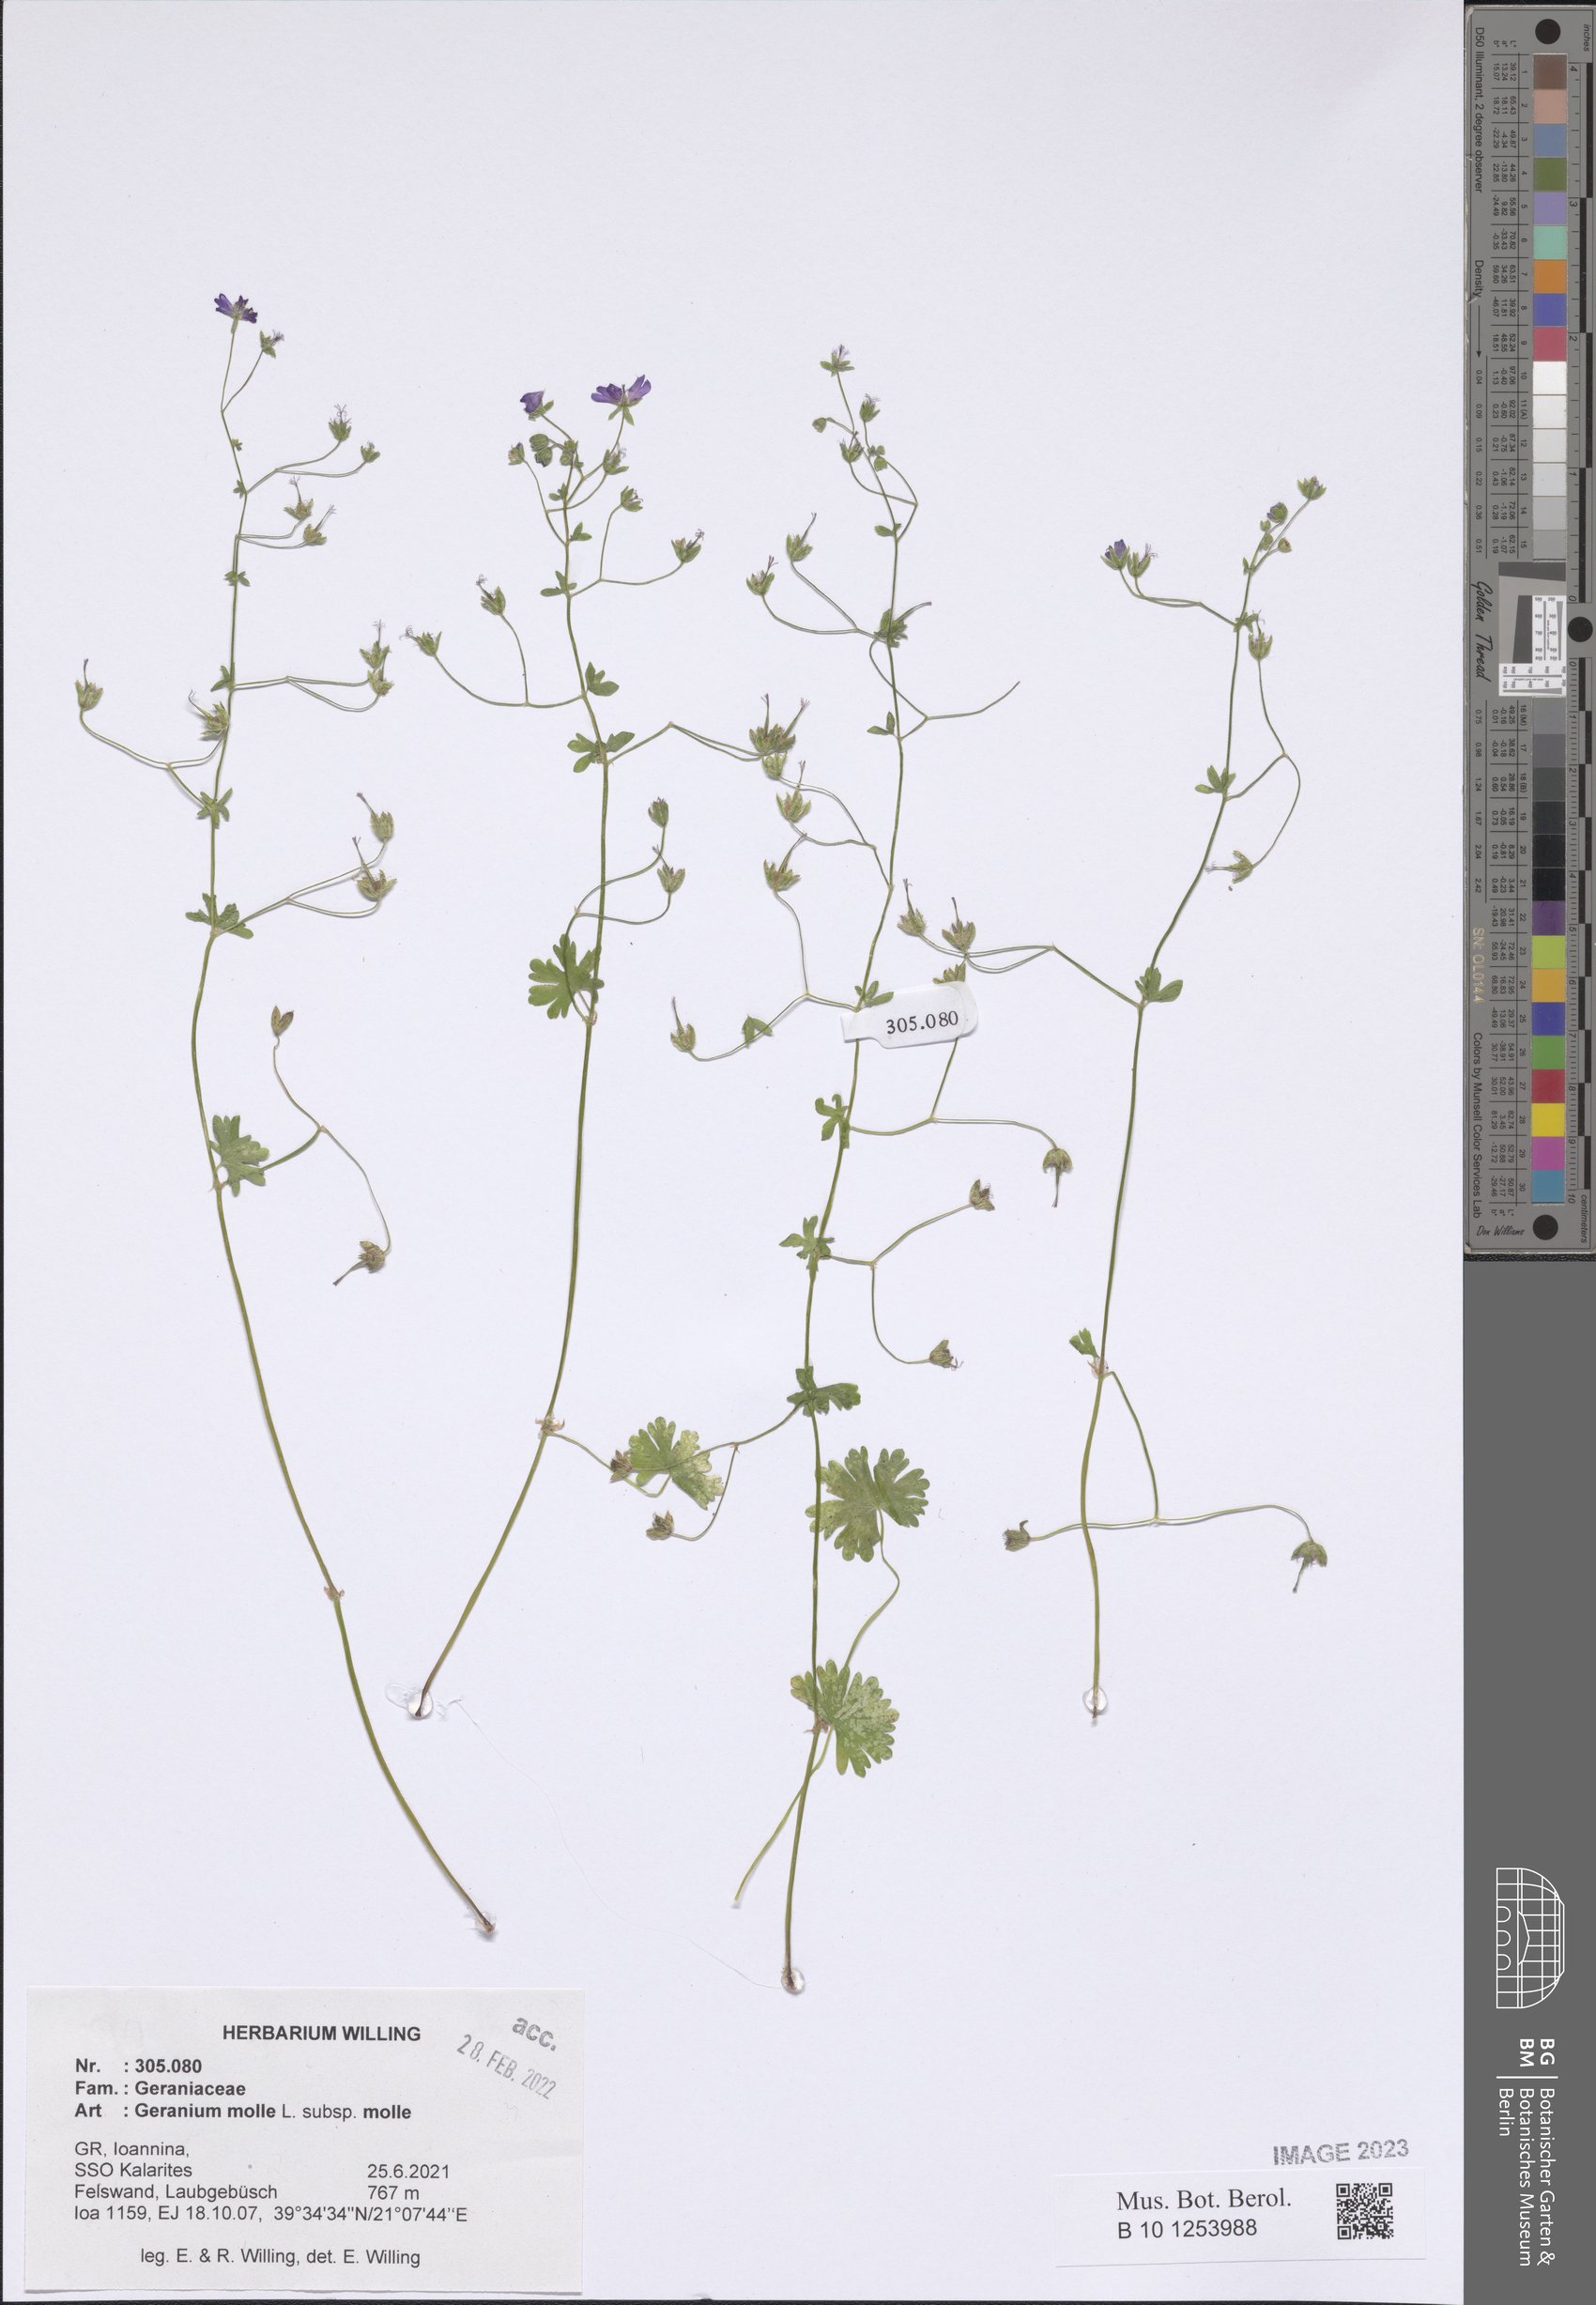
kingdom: Plantae
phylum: Tracheophyta
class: Magnoliopsida
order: Geraniales
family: Geraniaceae
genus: Geranium
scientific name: Geranium molle
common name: Dove's-foot crane's-bill
